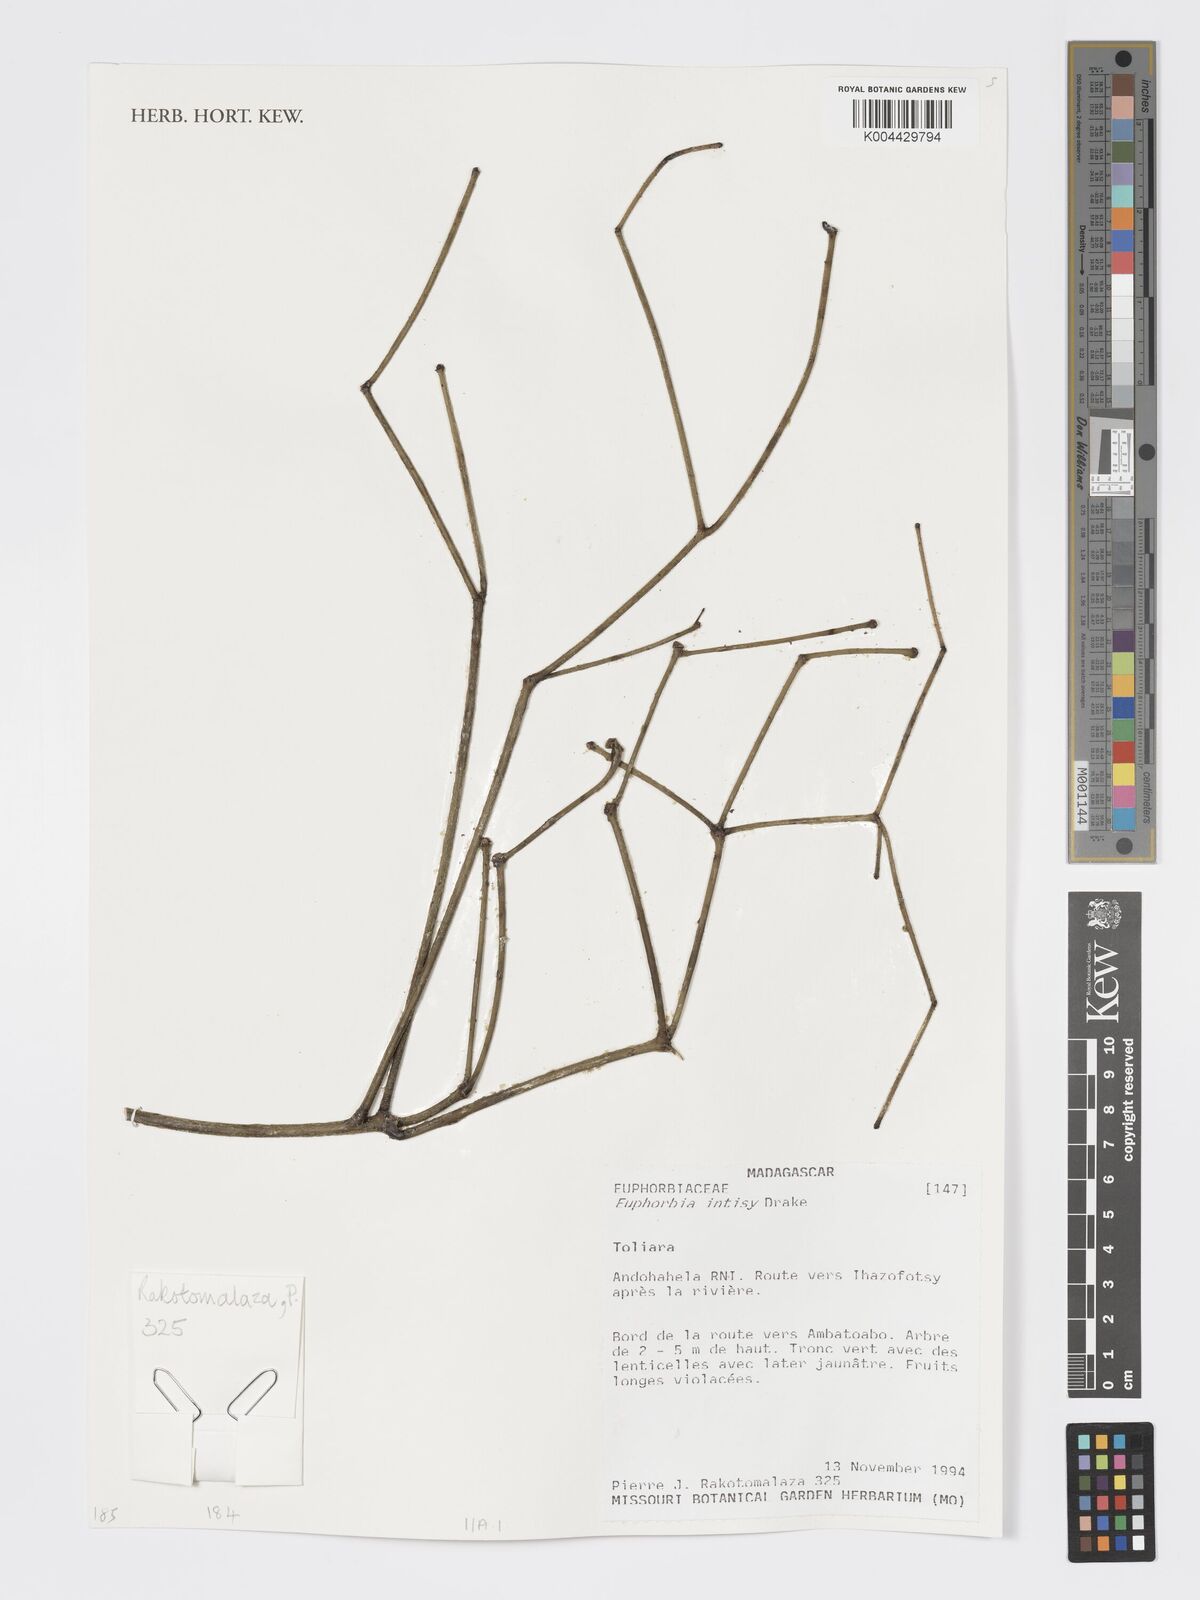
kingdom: Plantae
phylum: Tracheophyta
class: Magnoliopsida
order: Malpighiales
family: Euphorbiaceae
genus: Euphorbia
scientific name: Euphorbia intisy
